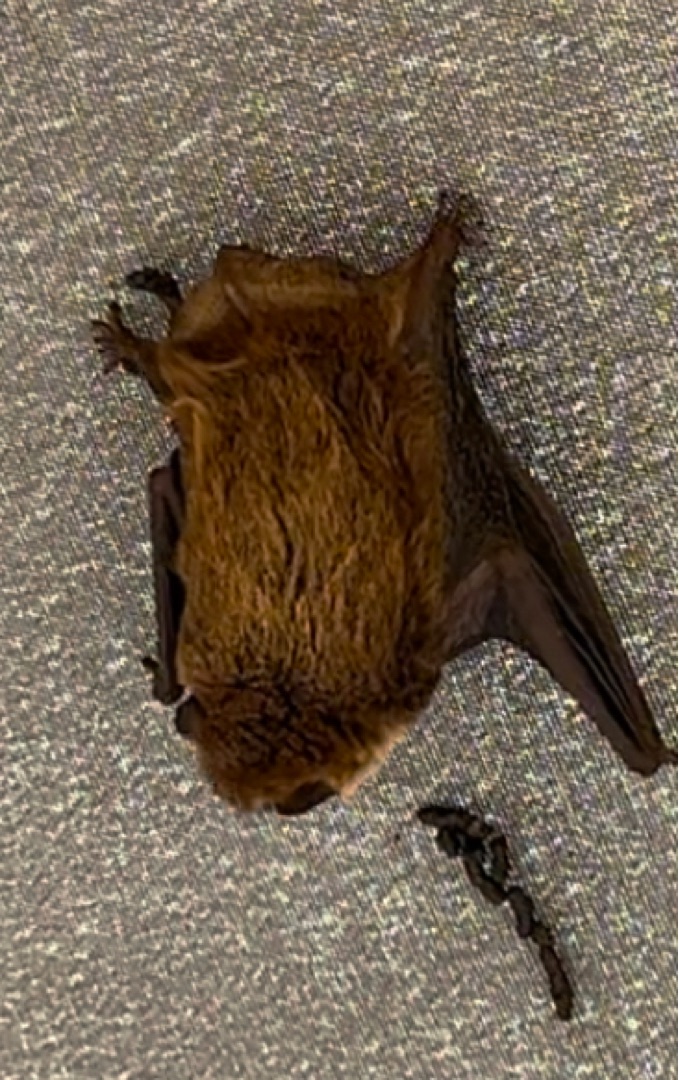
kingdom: Animalia
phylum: Chordata
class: Mammalia
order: Chiroptera
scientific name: Chiroptera
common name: Flagermus
